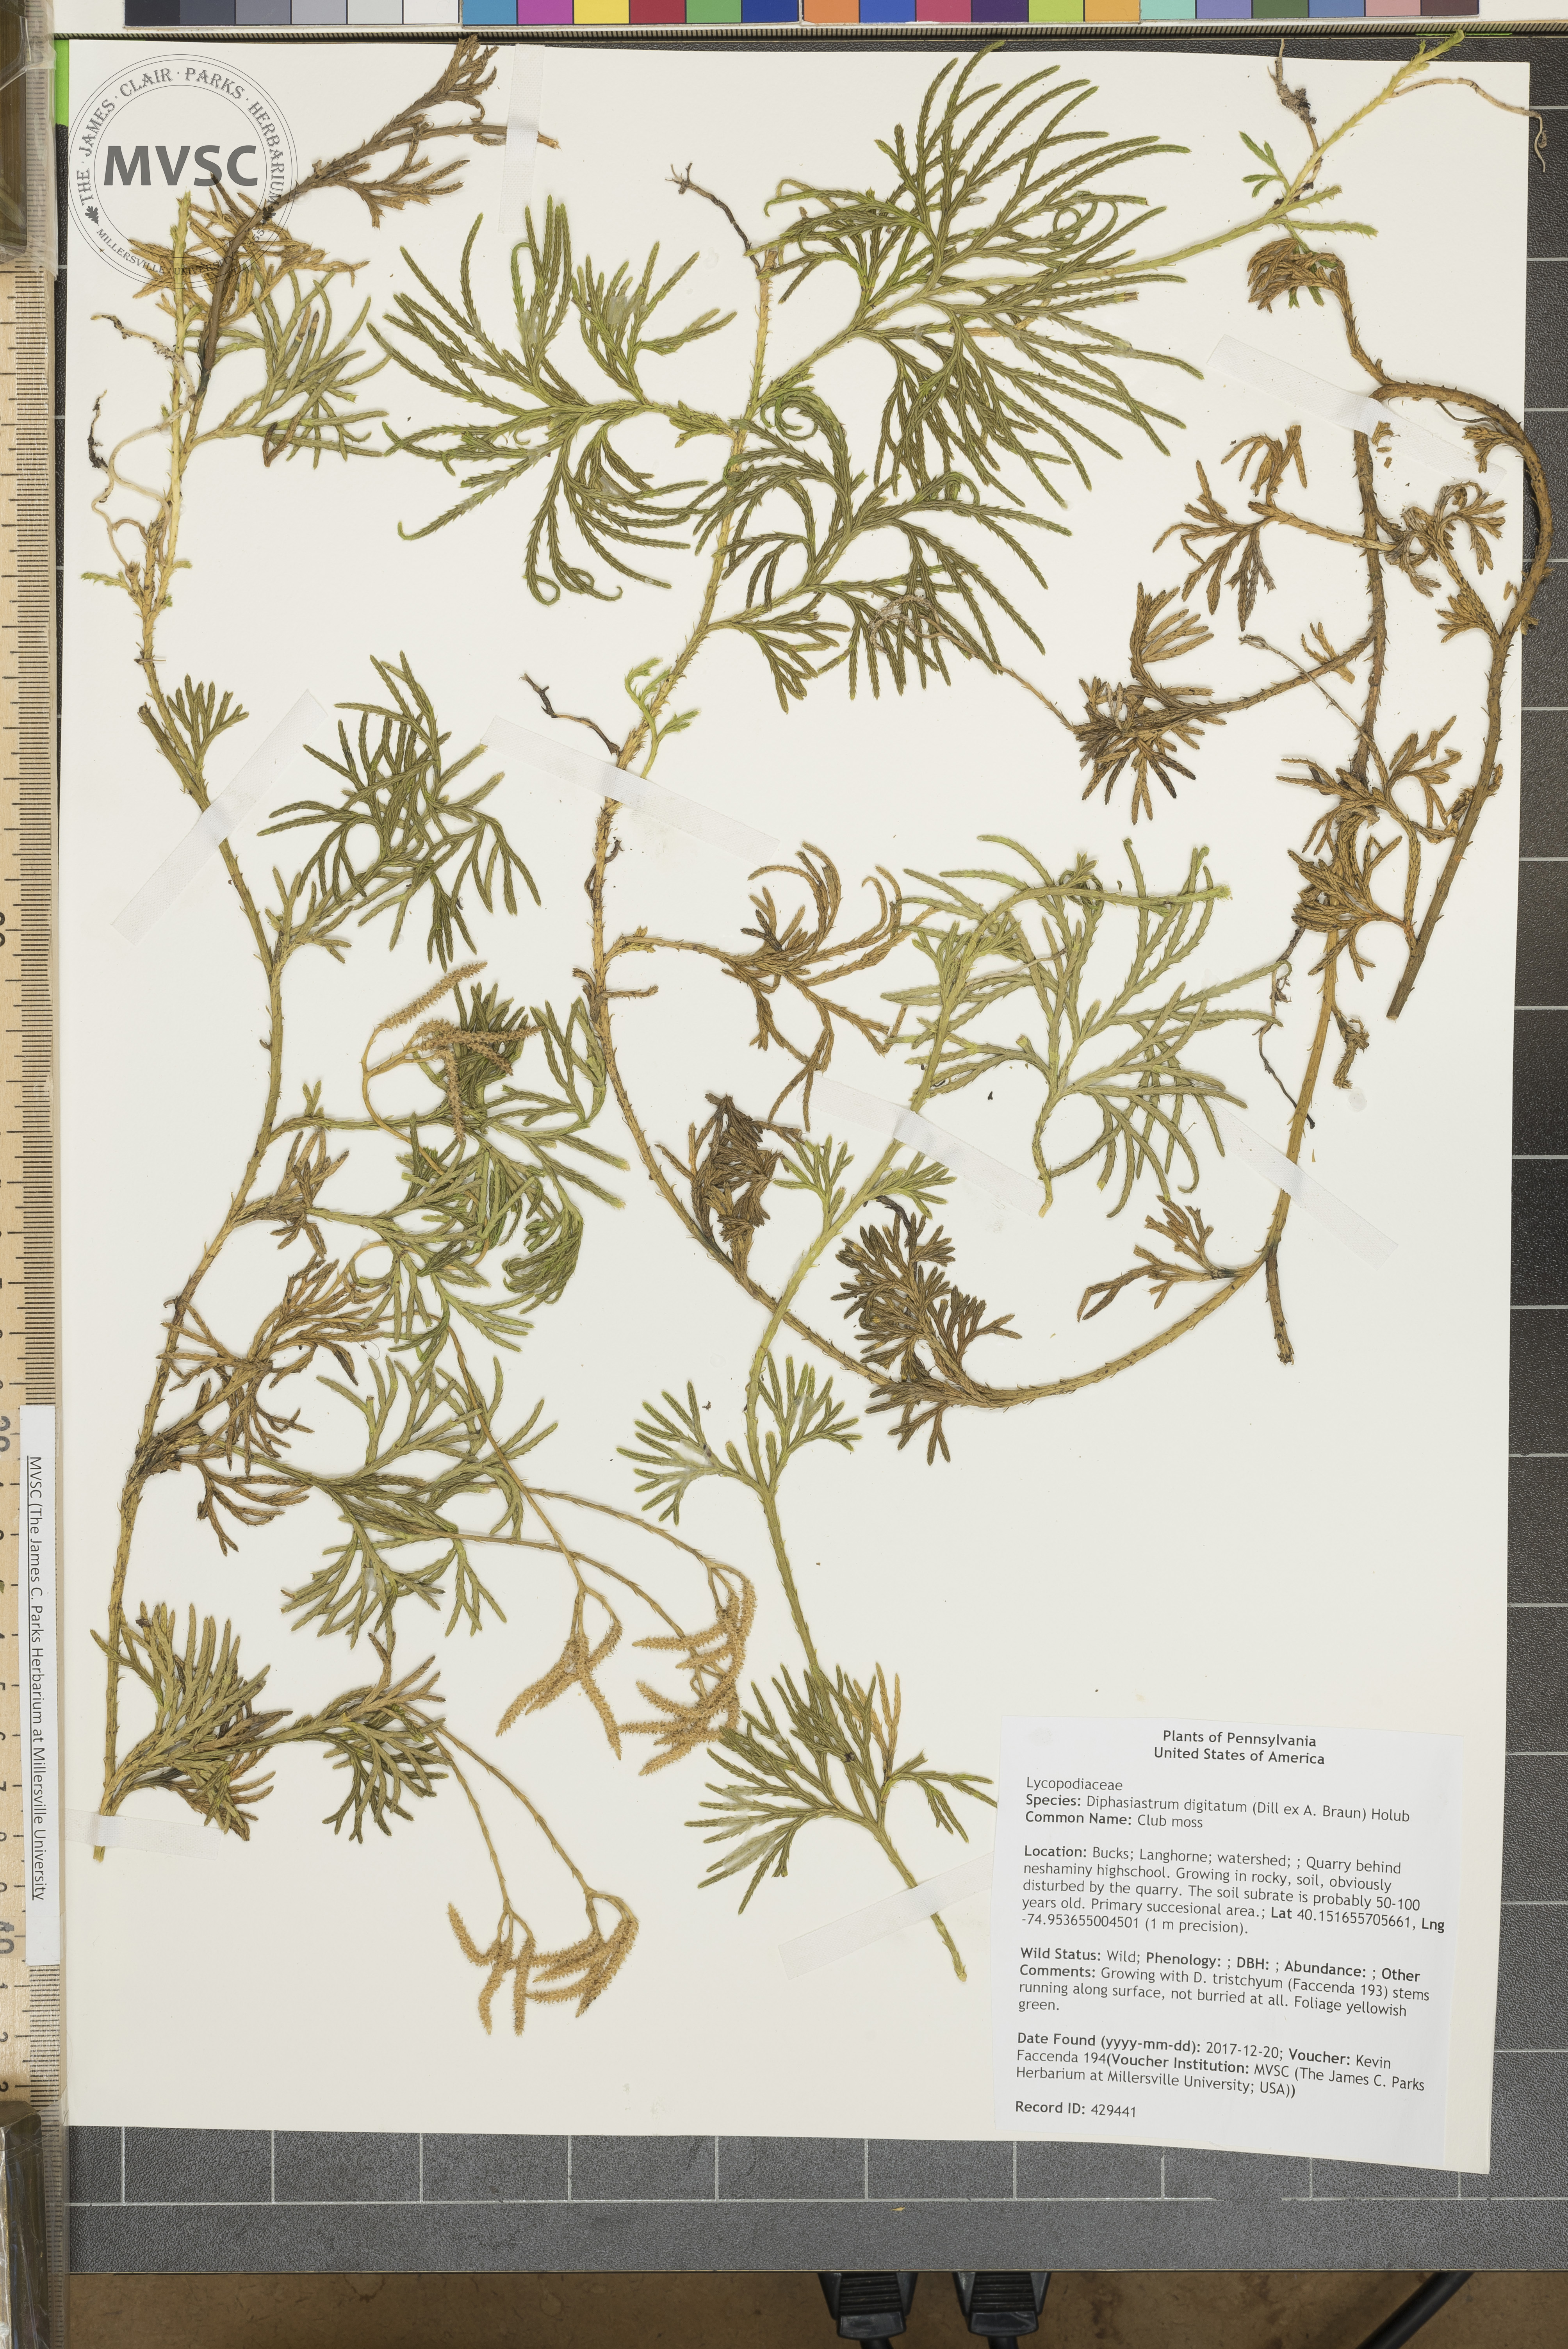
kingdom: Plantae
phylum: Tracheophyta
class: Lycopodiopsida
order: Lycopodiales
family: Lycopodiaceae
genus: Diphasiastrum
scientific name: Diphasiastrum digitatum
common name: Club moss
